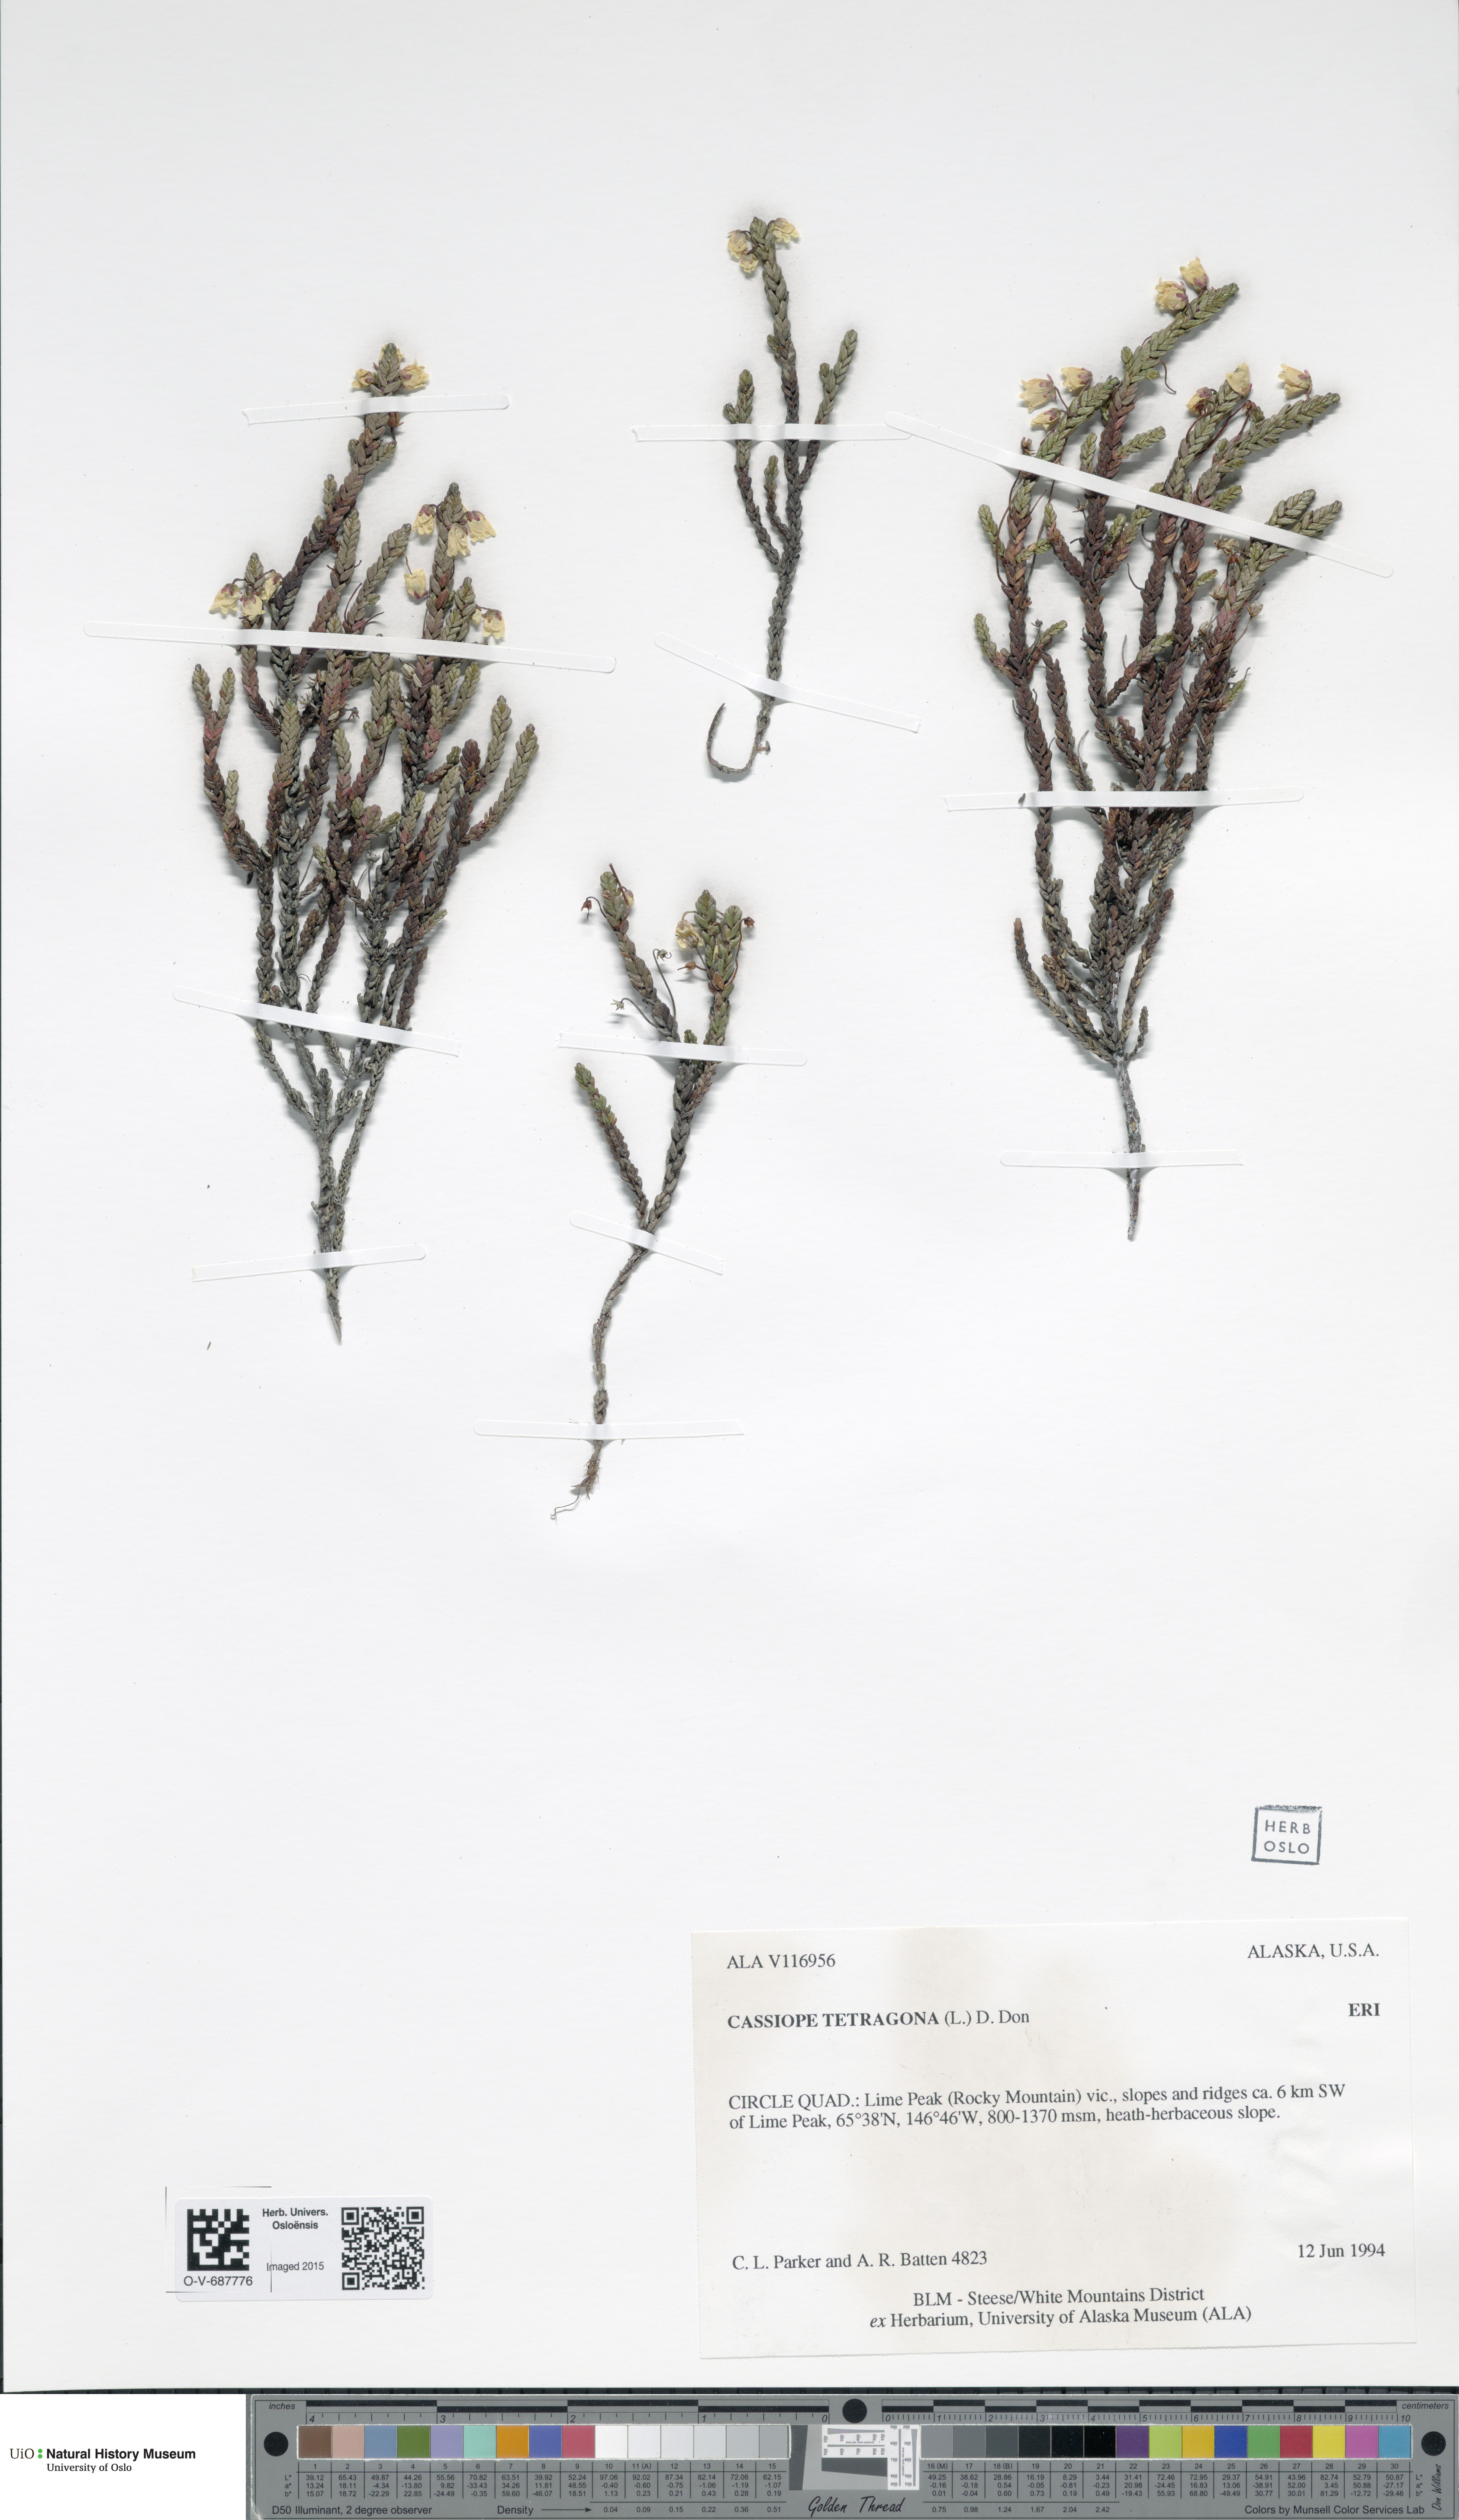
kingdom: Plantae
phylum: Tracheophyta
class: Magnoliopsida
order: Ericales
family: Ericaceae
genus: Cassiope
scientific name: Cassiope tetragona
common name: Arctic bell heather
